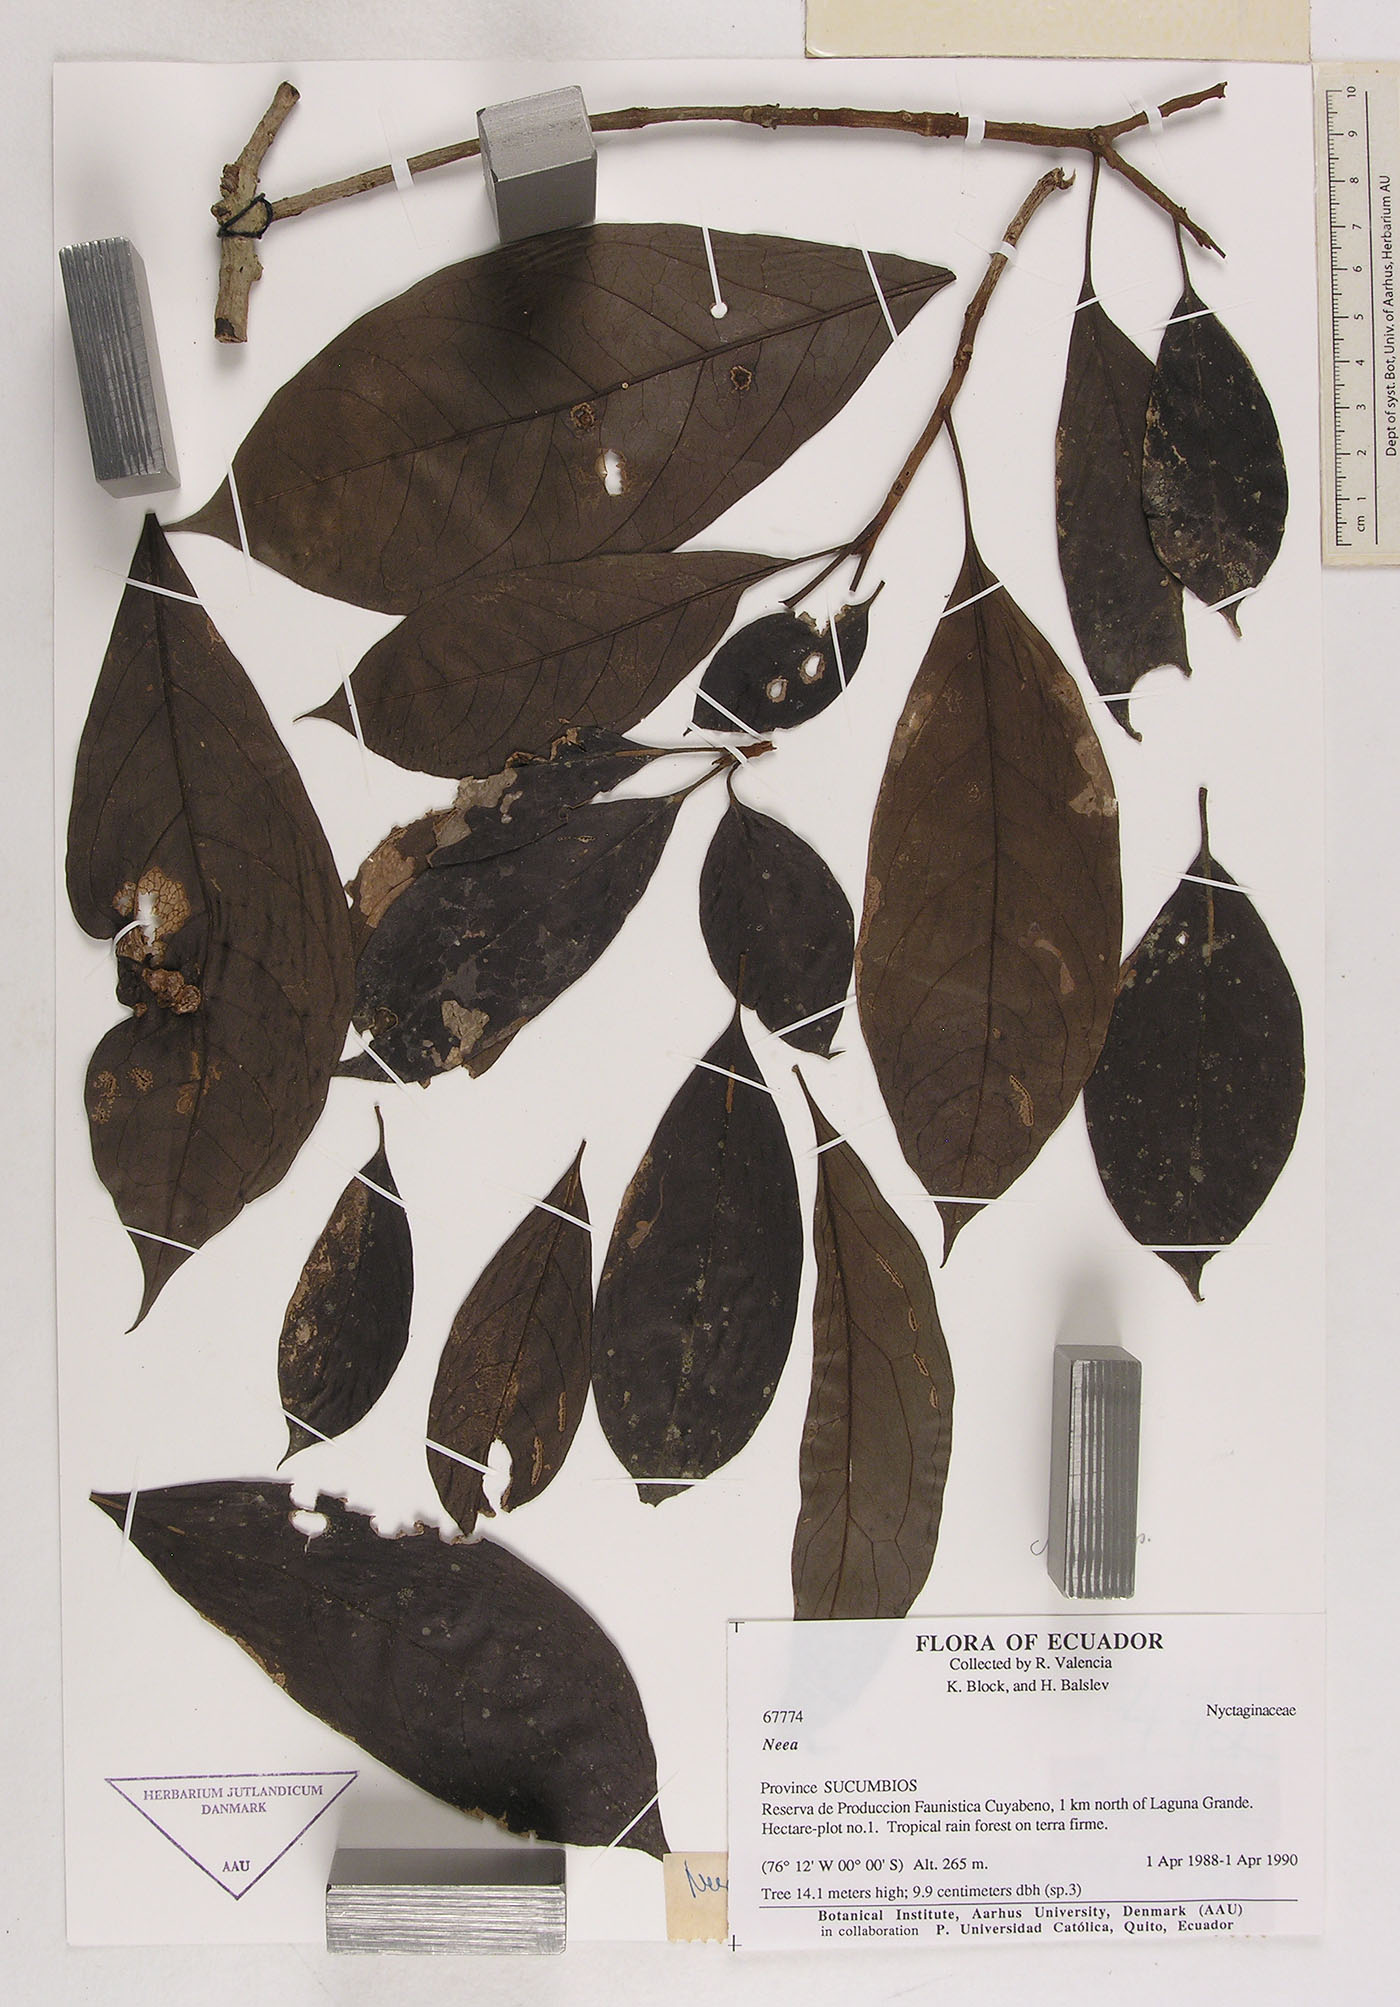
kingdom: Plantae
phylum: Tracheophyta
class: Magnoliopsida
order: Caryophyllales
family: Nyctaginaceae
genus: Neea
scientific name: Neea
